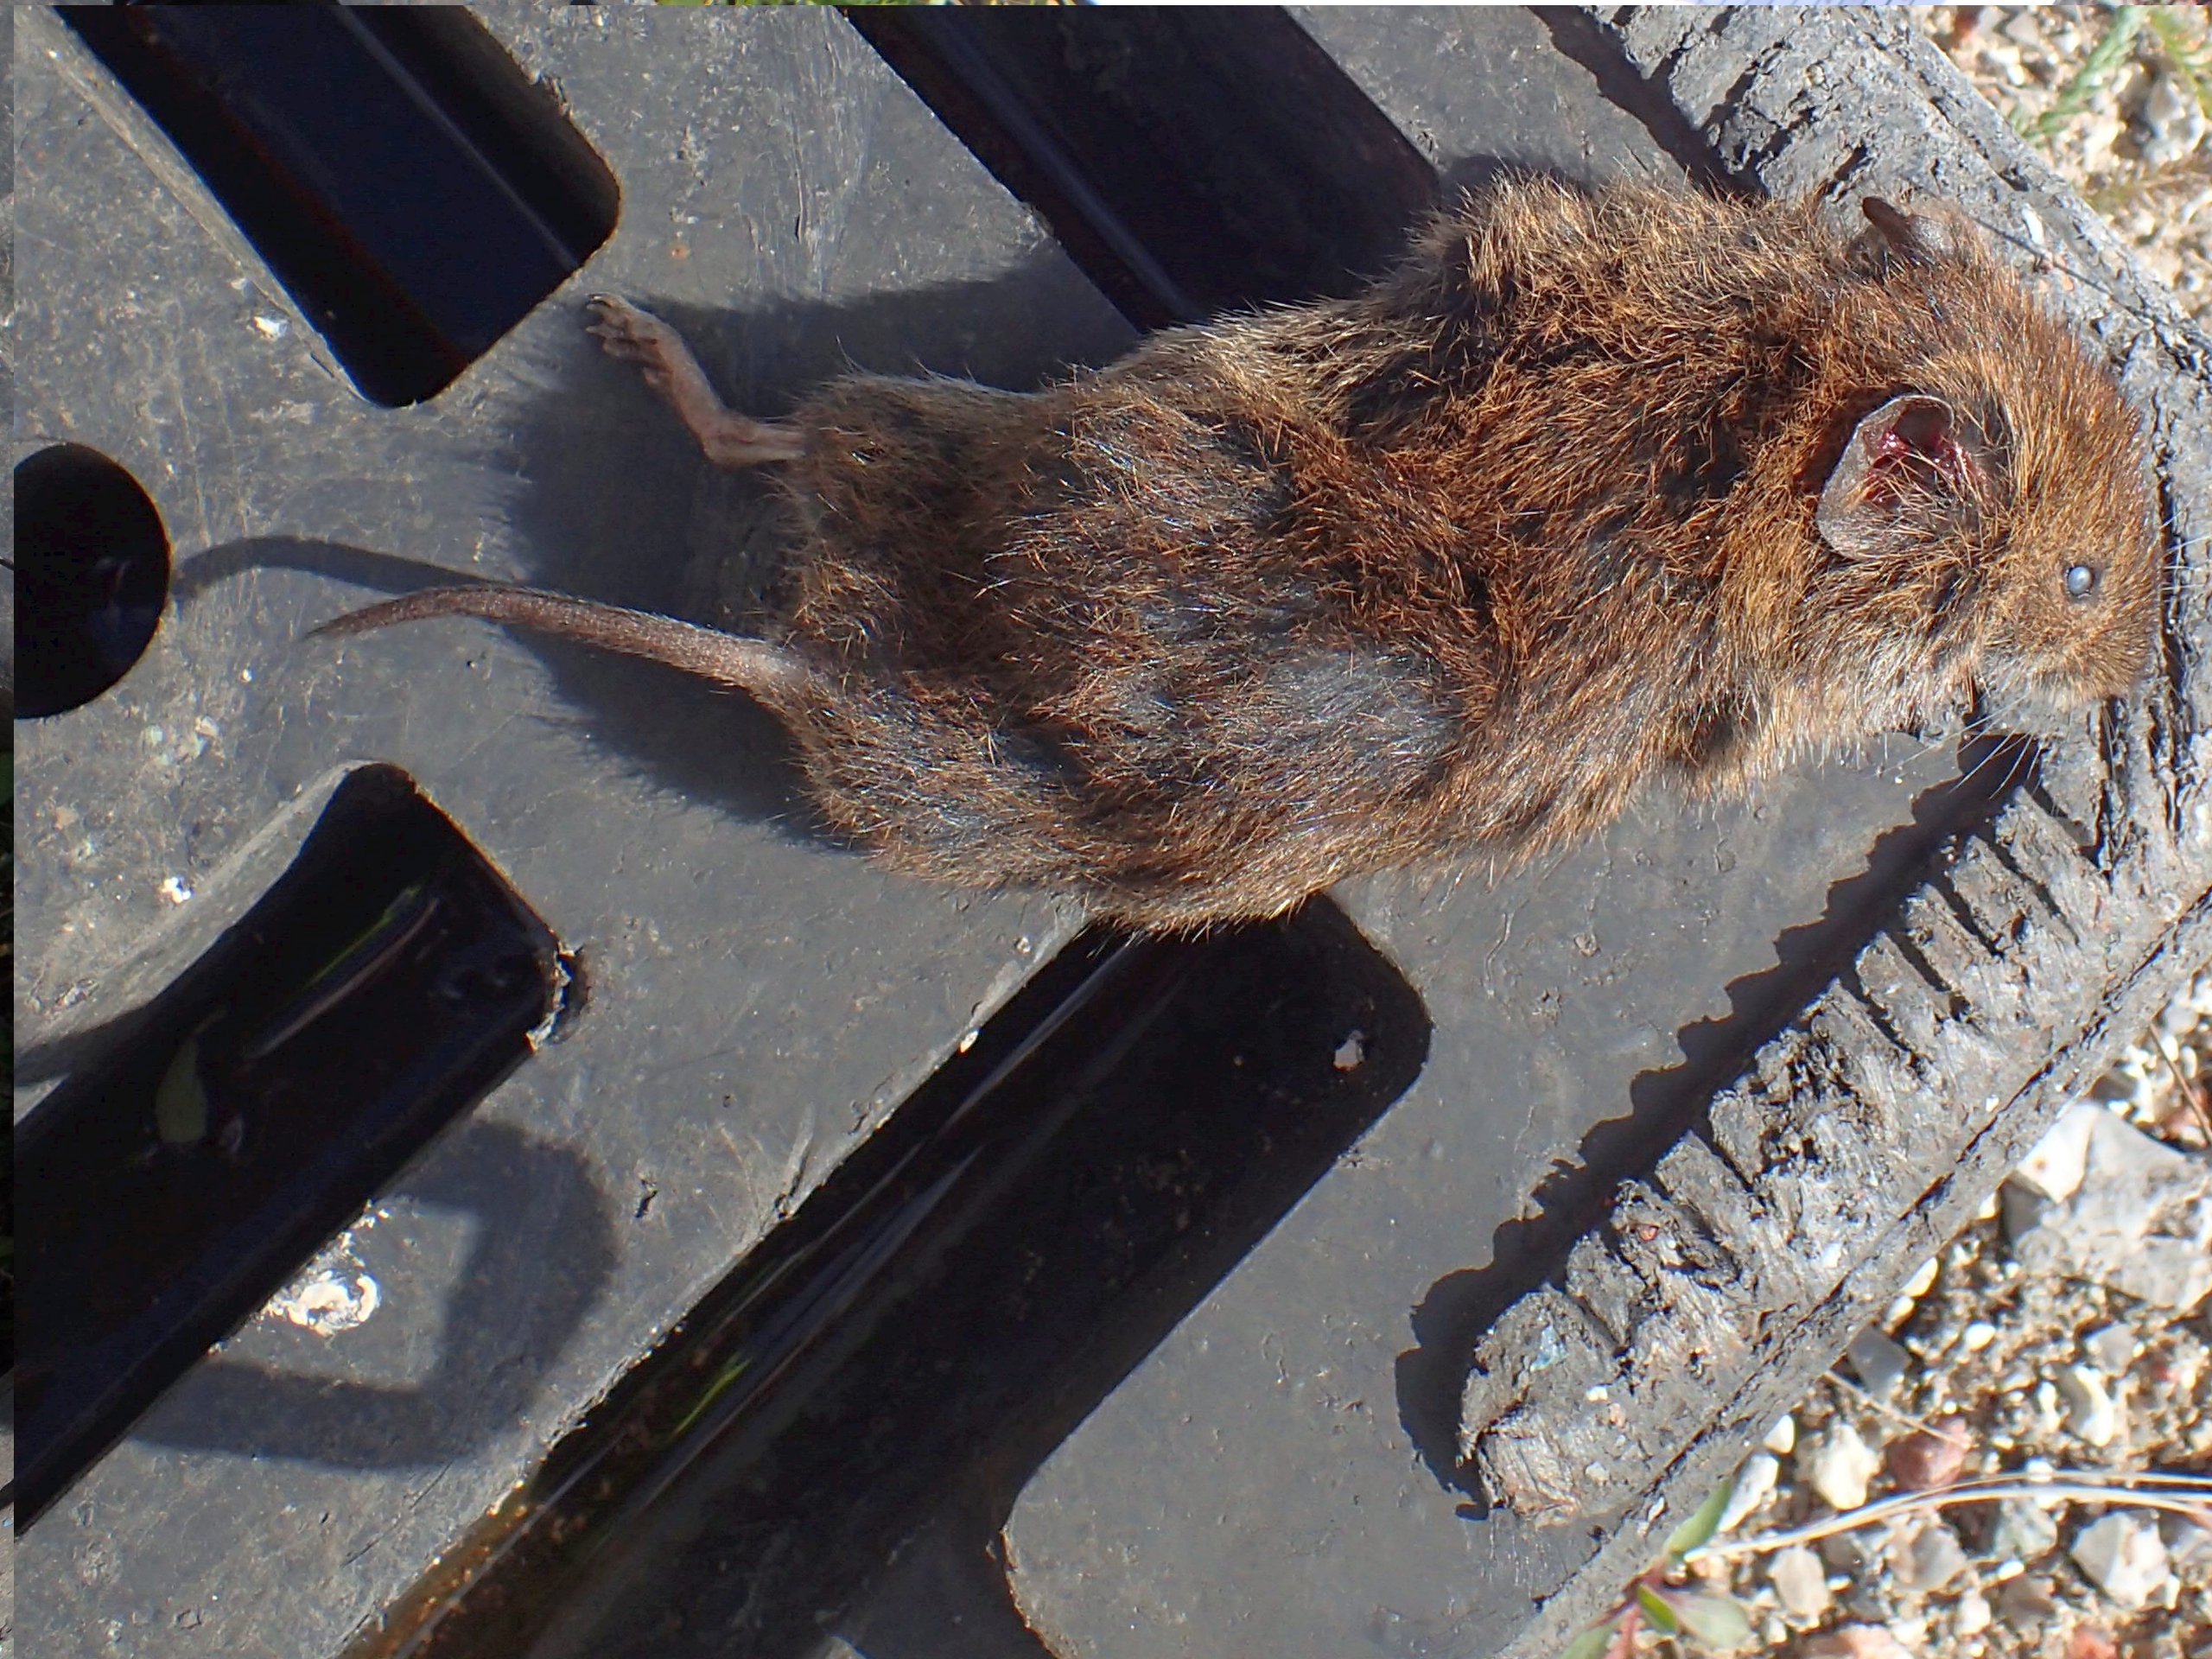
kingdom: Animalia
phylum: Chordata
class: Mammalia
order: Rodentia
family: Cricetidae
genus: Microtus
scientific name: Microtus agrestis
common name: Almindelig markmus
